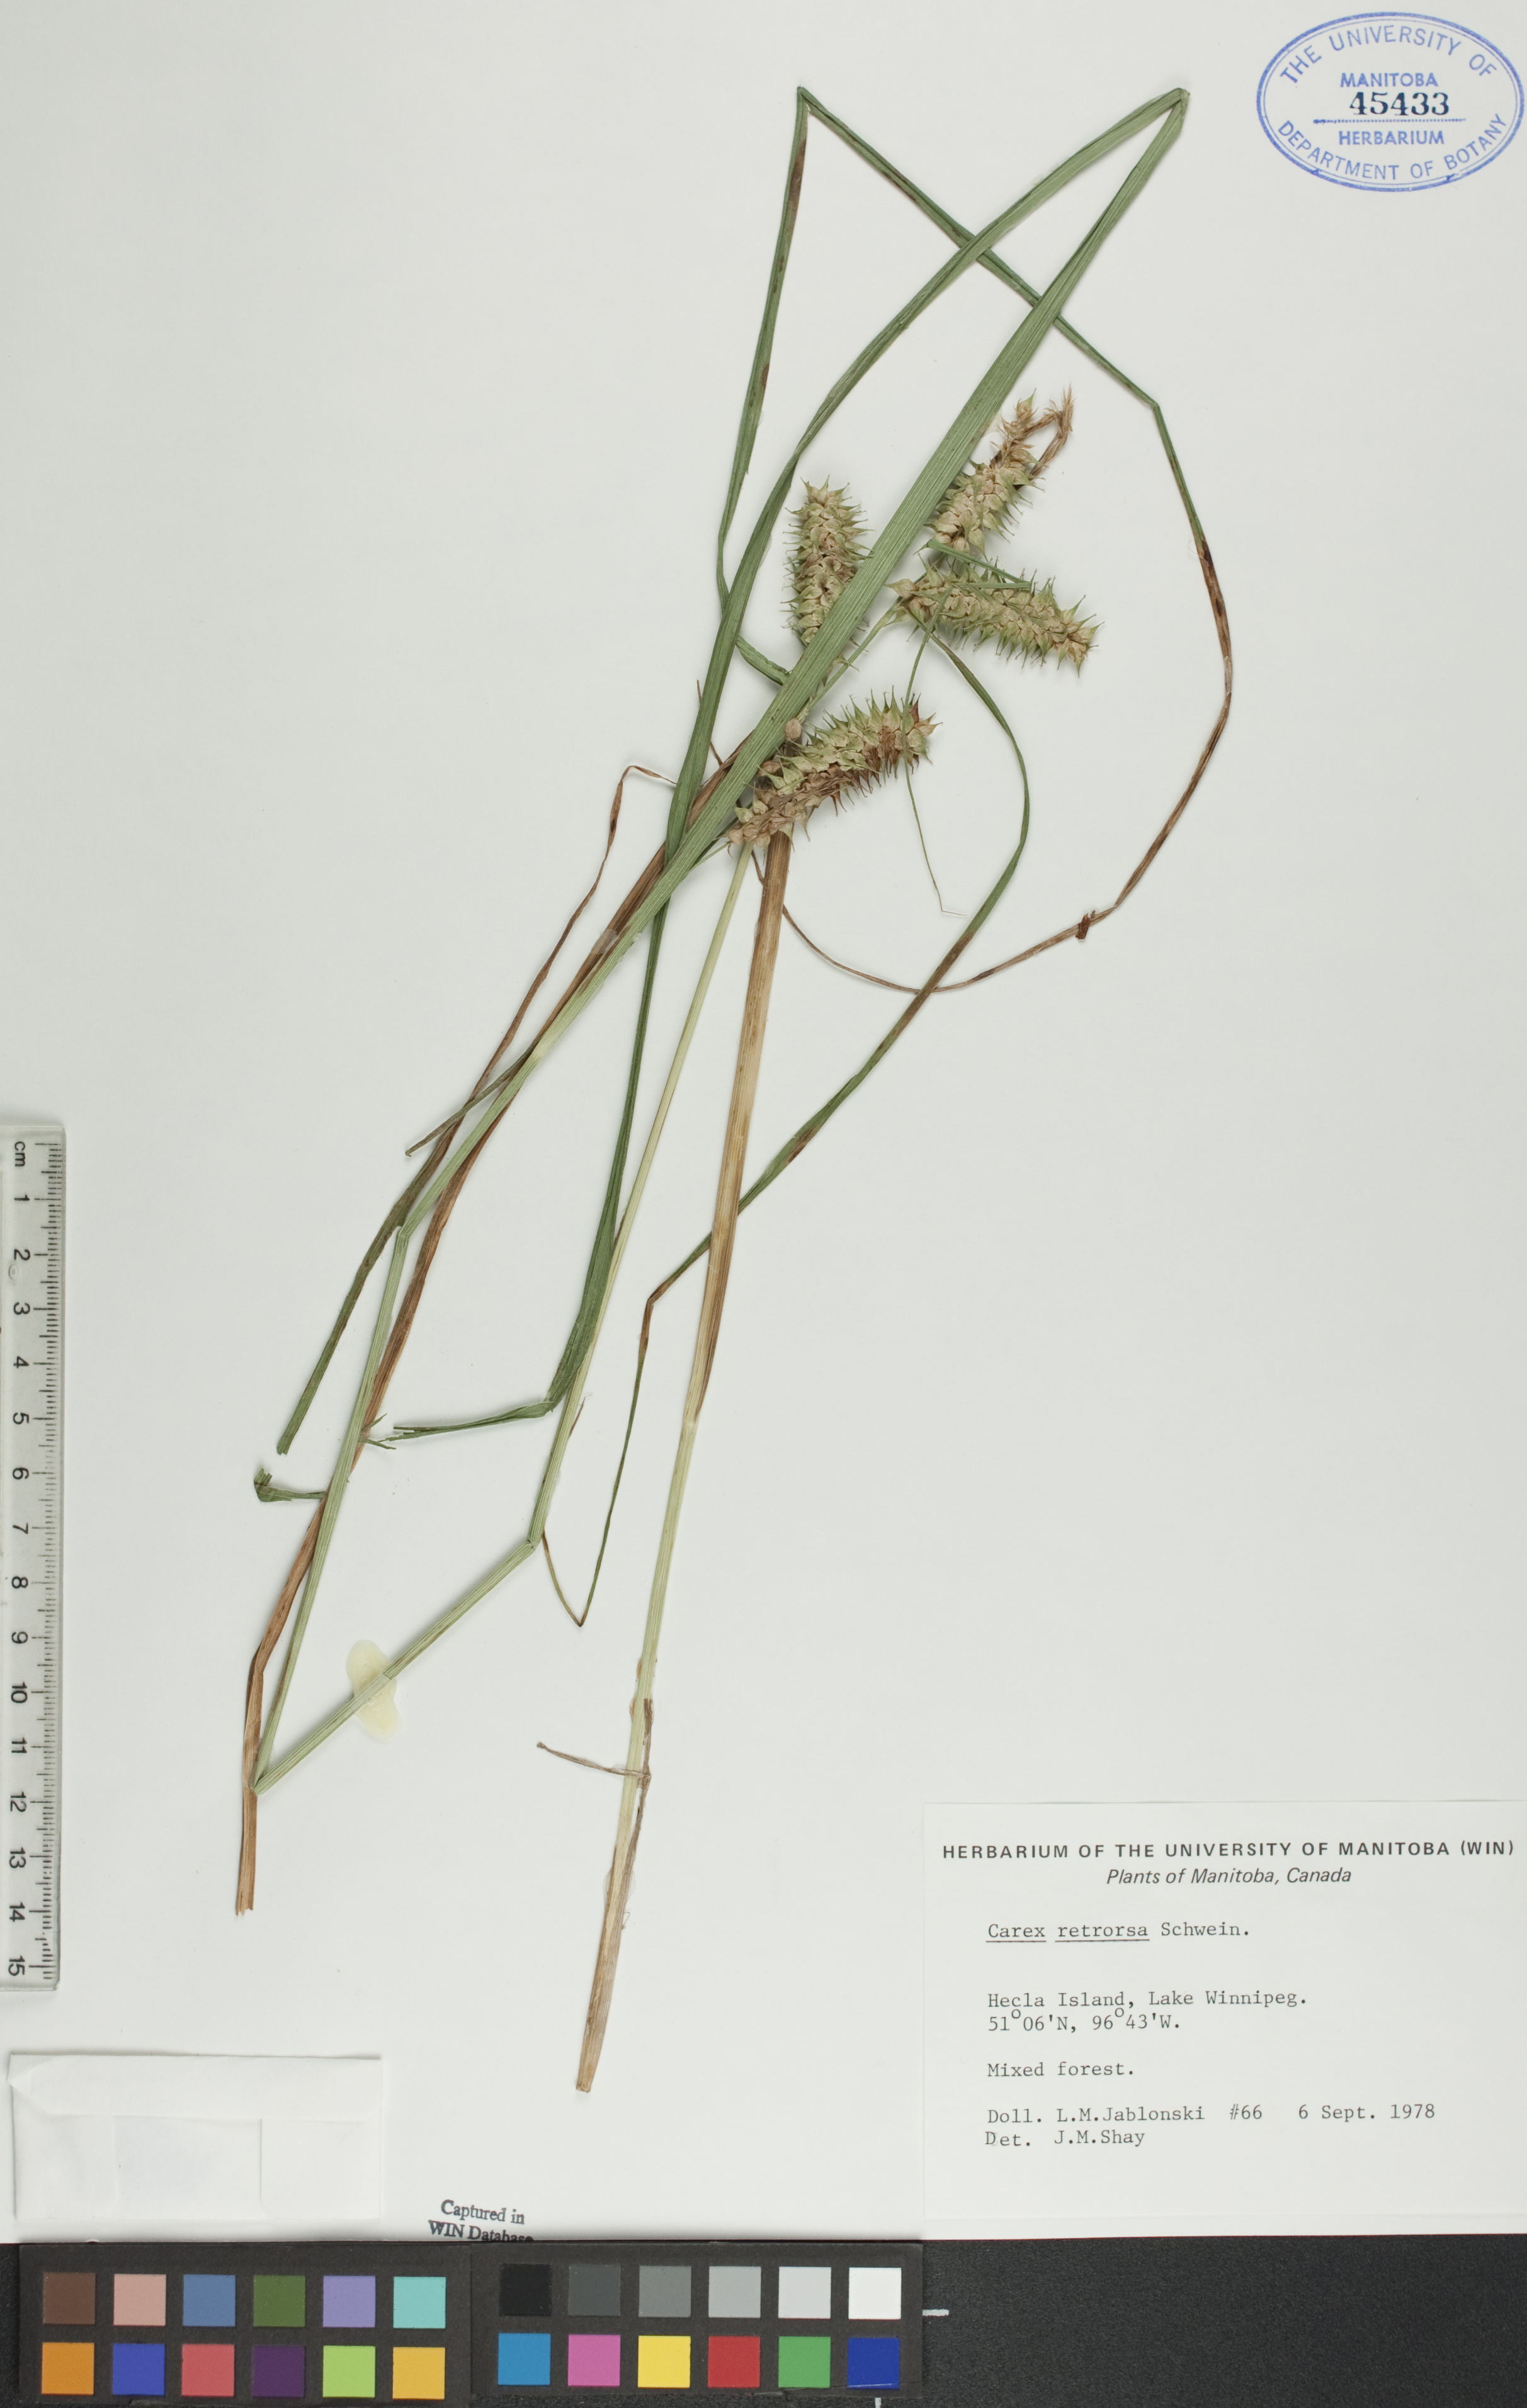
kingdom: Plantae
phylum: Tracheophyta
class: Liliopsida
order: Poales
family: Cyperaceae
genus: Carex
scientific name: Carex retrorsa
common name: Knot-sheath sedge
